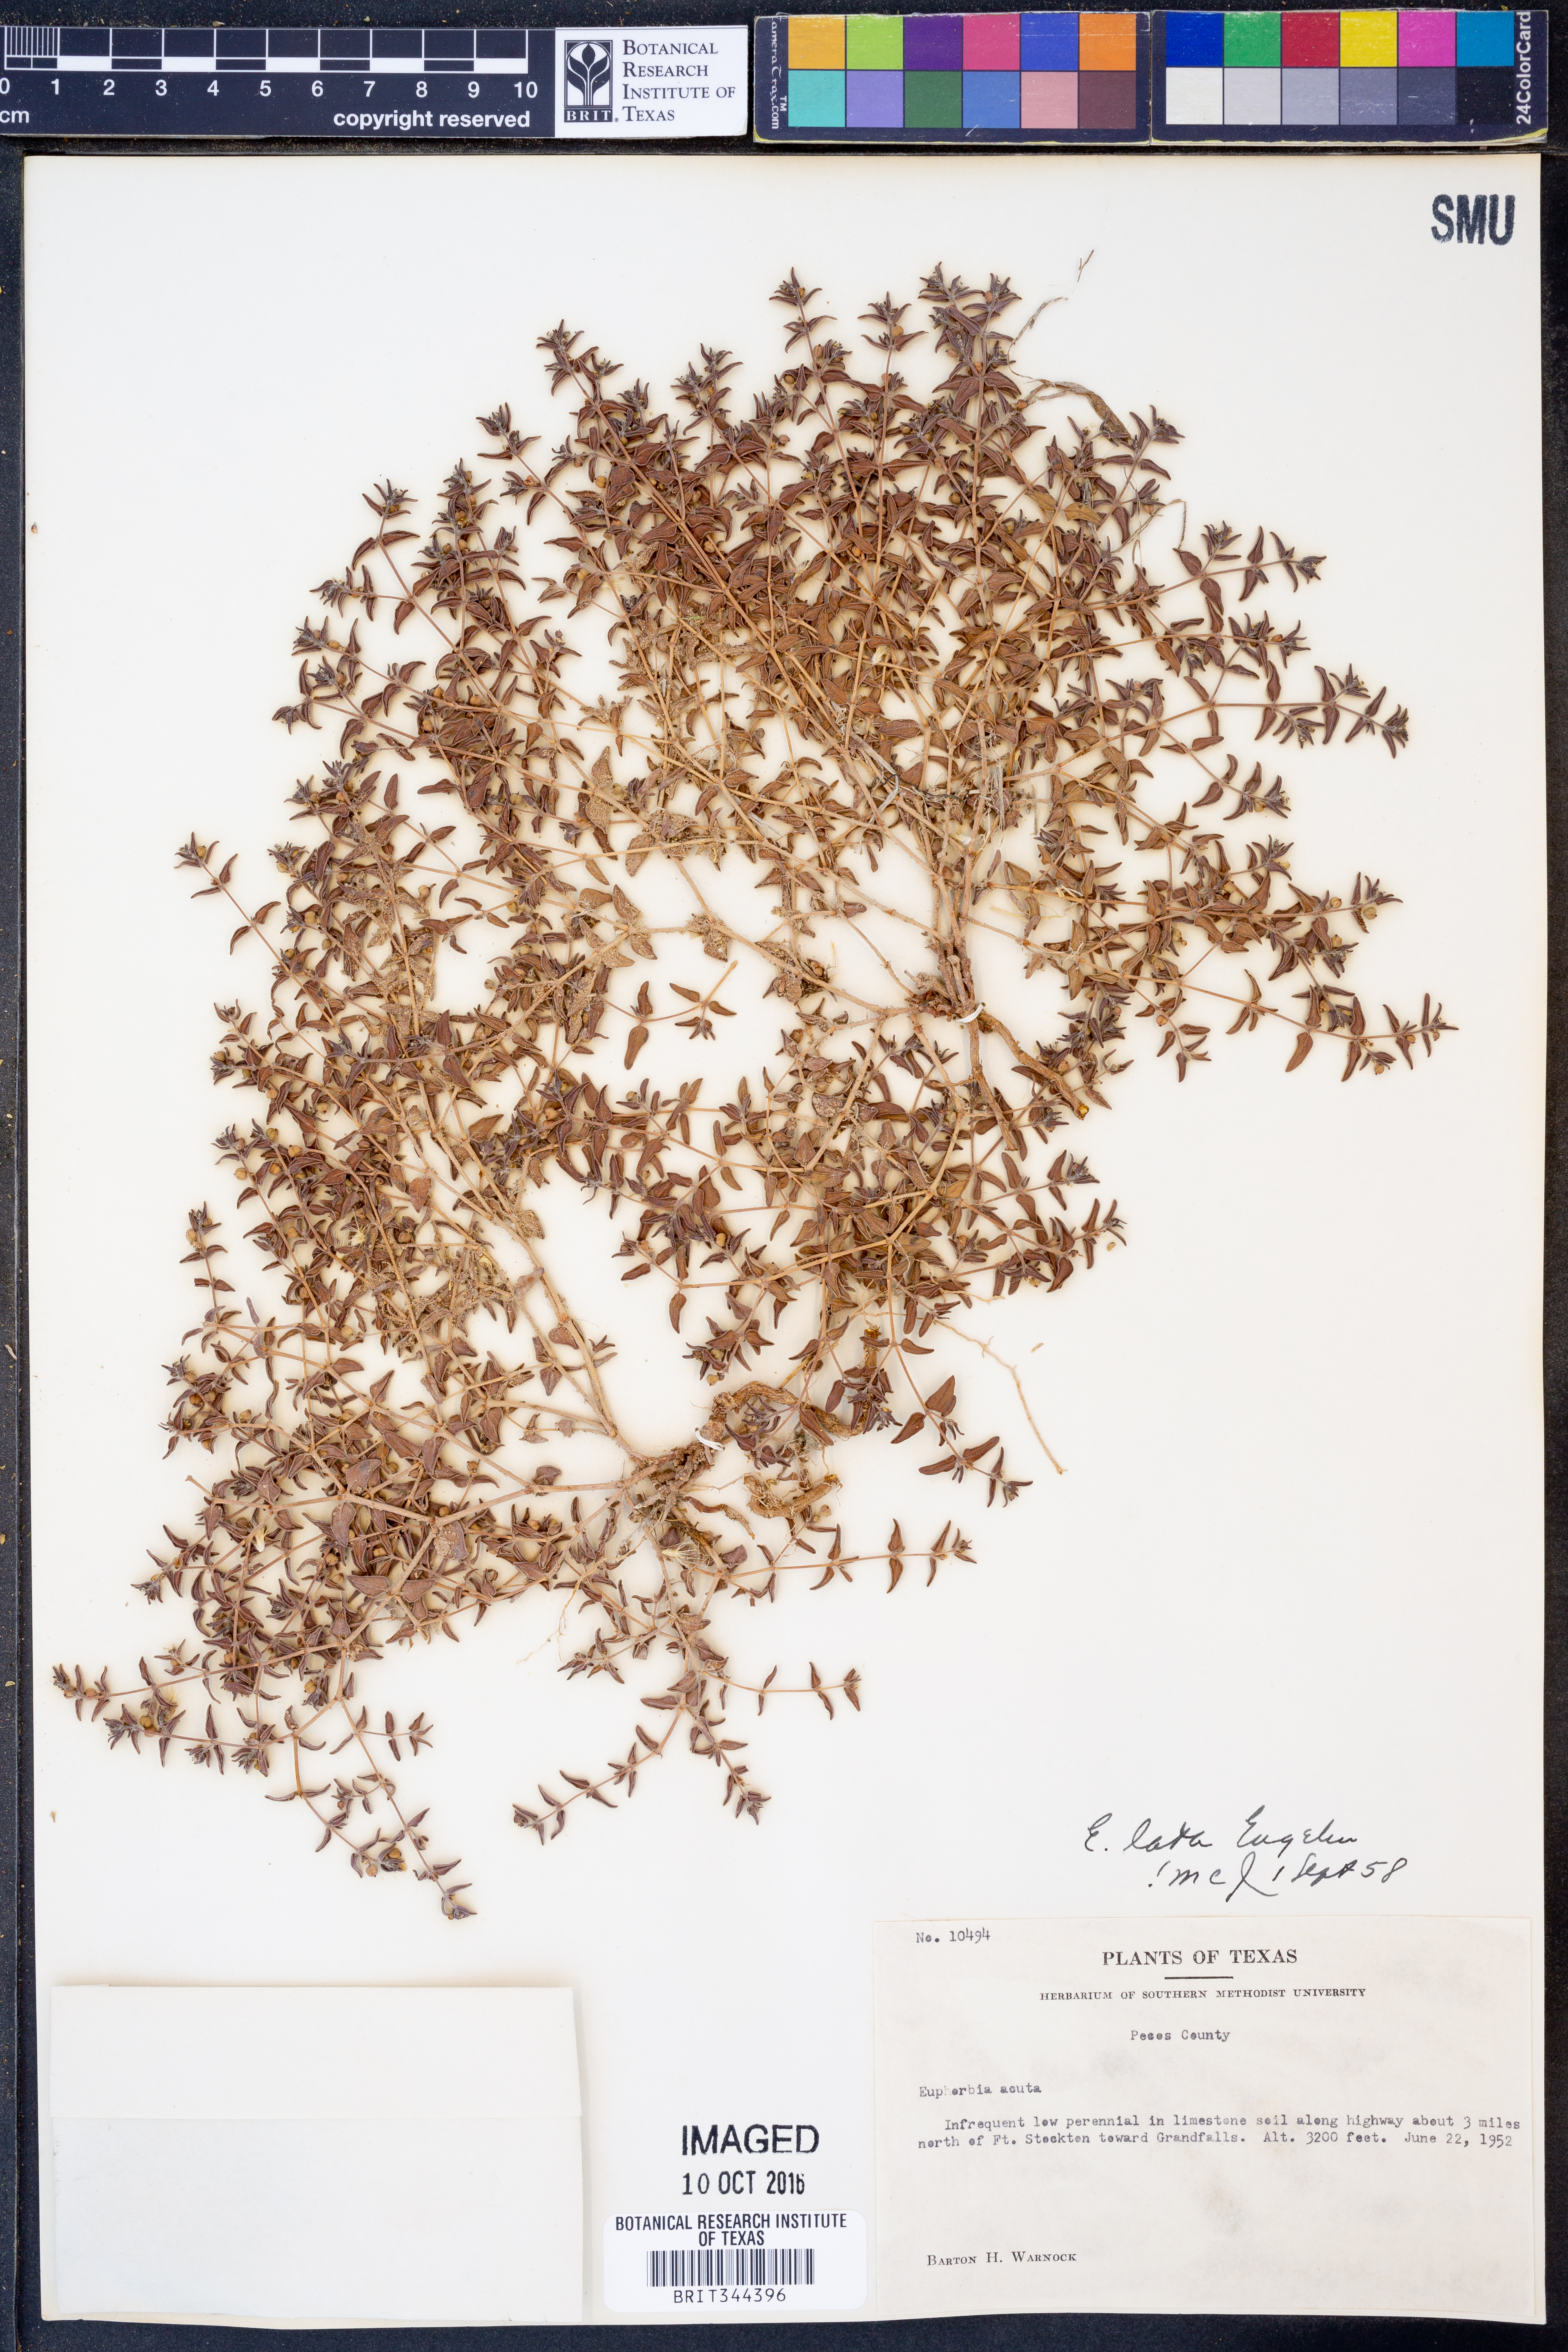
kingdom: Plantae
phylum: Tracheophyta
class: Magnoliopsida
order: Malpighiales
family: Euphorbiaceae
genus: Euphorbia
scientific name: Euphorbia lata
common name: Hoary euphorbia
